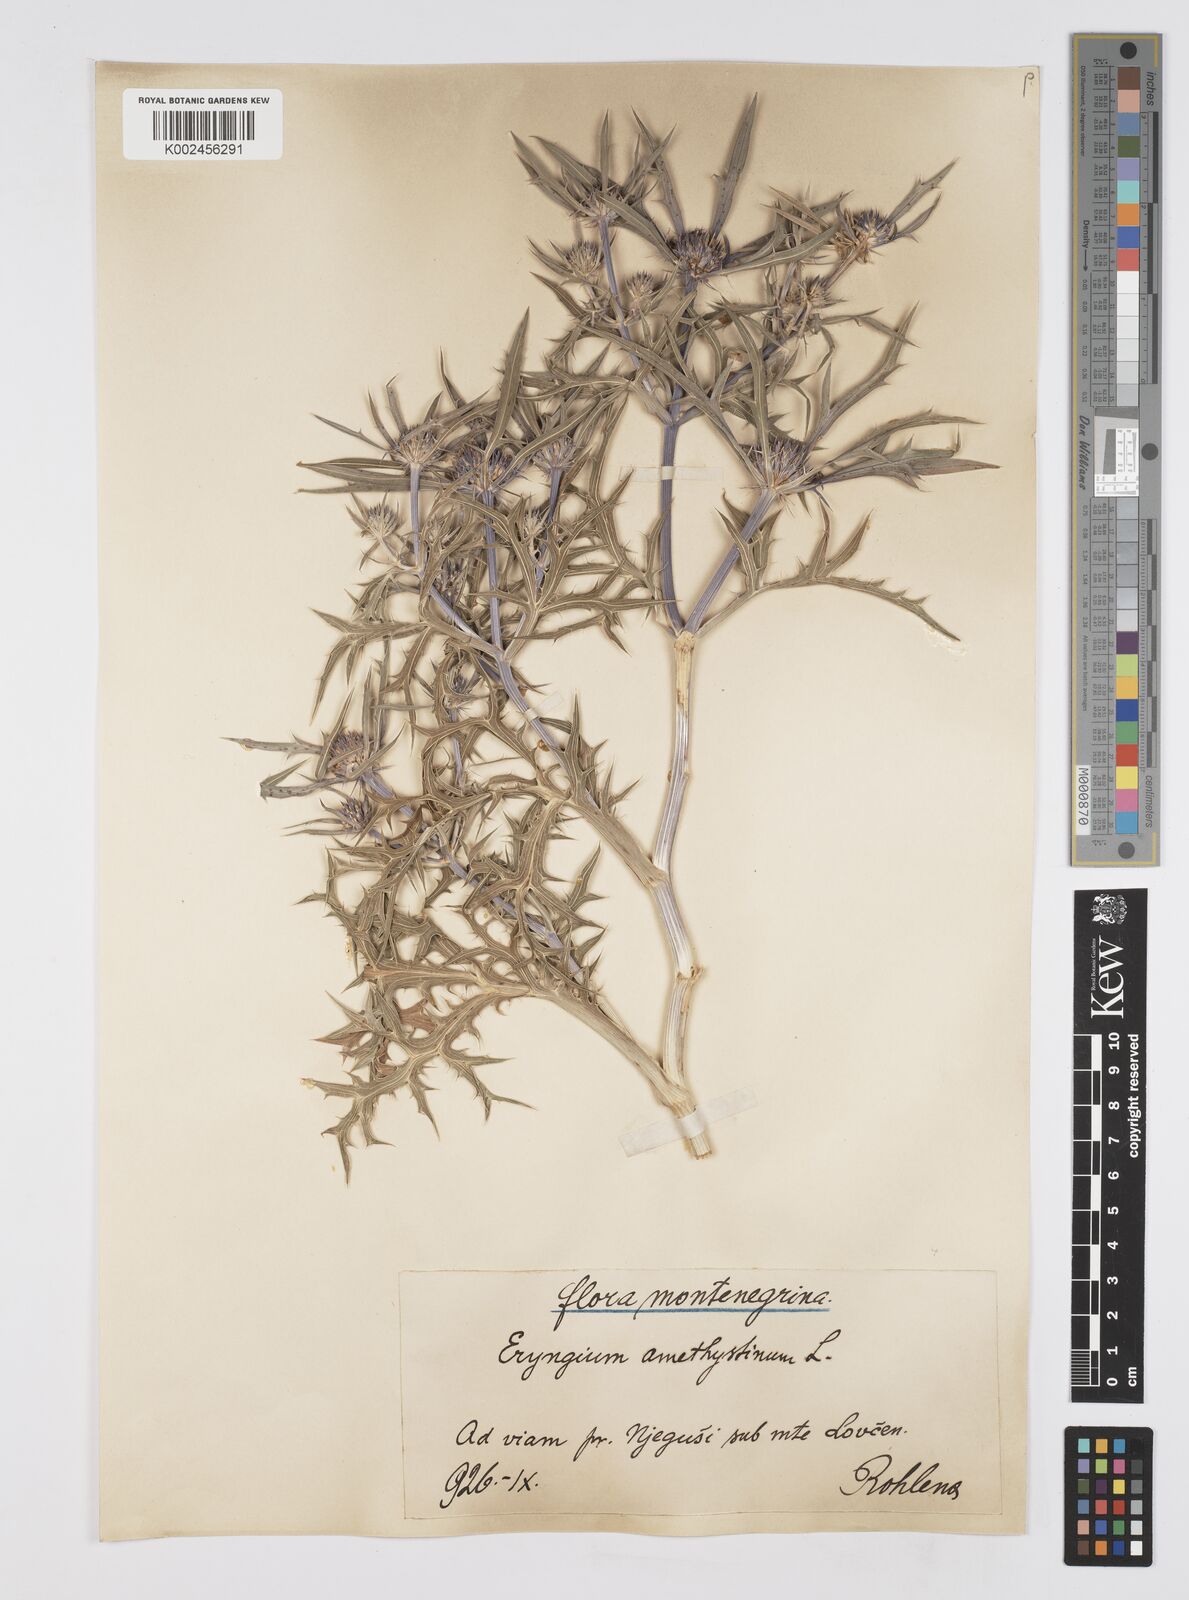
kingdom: Plantae
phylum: Tracheophyta
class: Magnoliopsida
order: Apiales
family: Apiaceae
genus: Eryngium
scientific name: Eryngium amethystinum
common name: Amethyst eryngo
